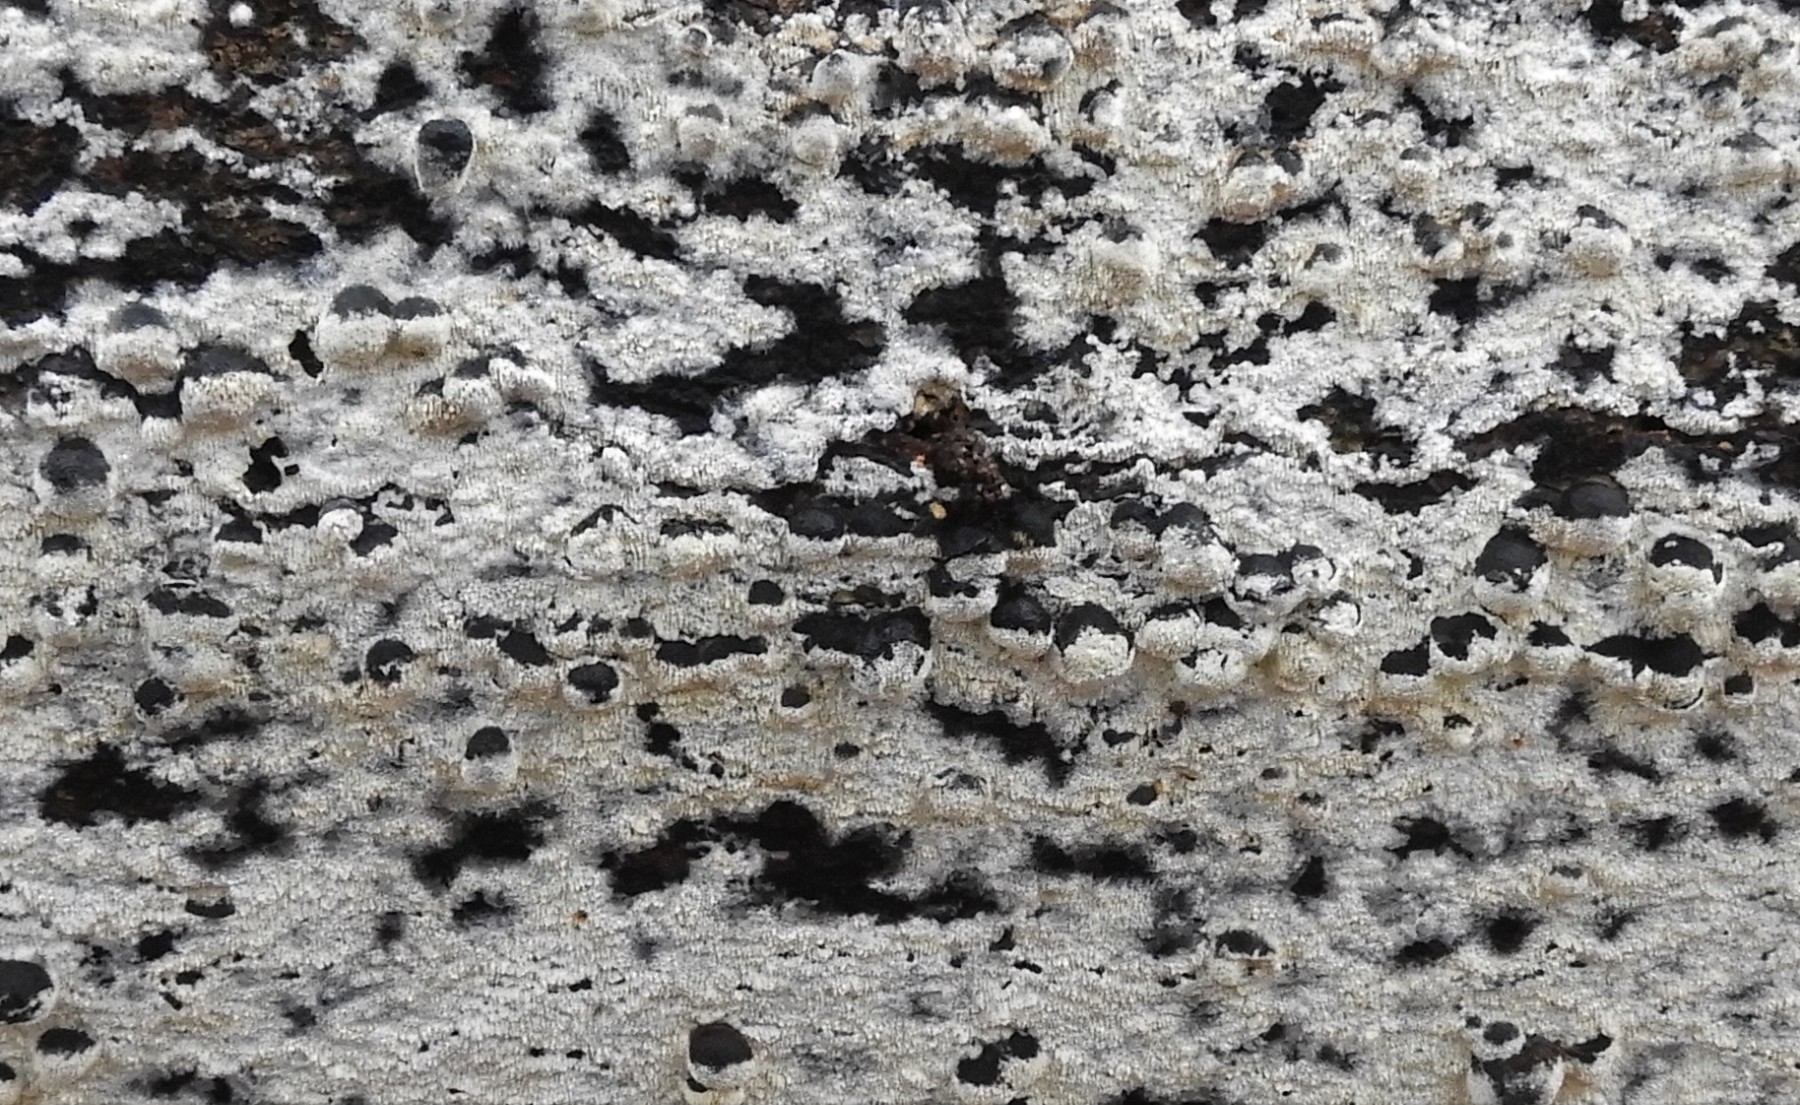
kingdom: Fungi
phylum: Basidiomycota
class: Agaricomycetes
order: Hymenochaetales
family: Schizoporaceae
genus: Schizopora
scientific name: Schizopora paradoxa
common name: hvid tandsvamp
